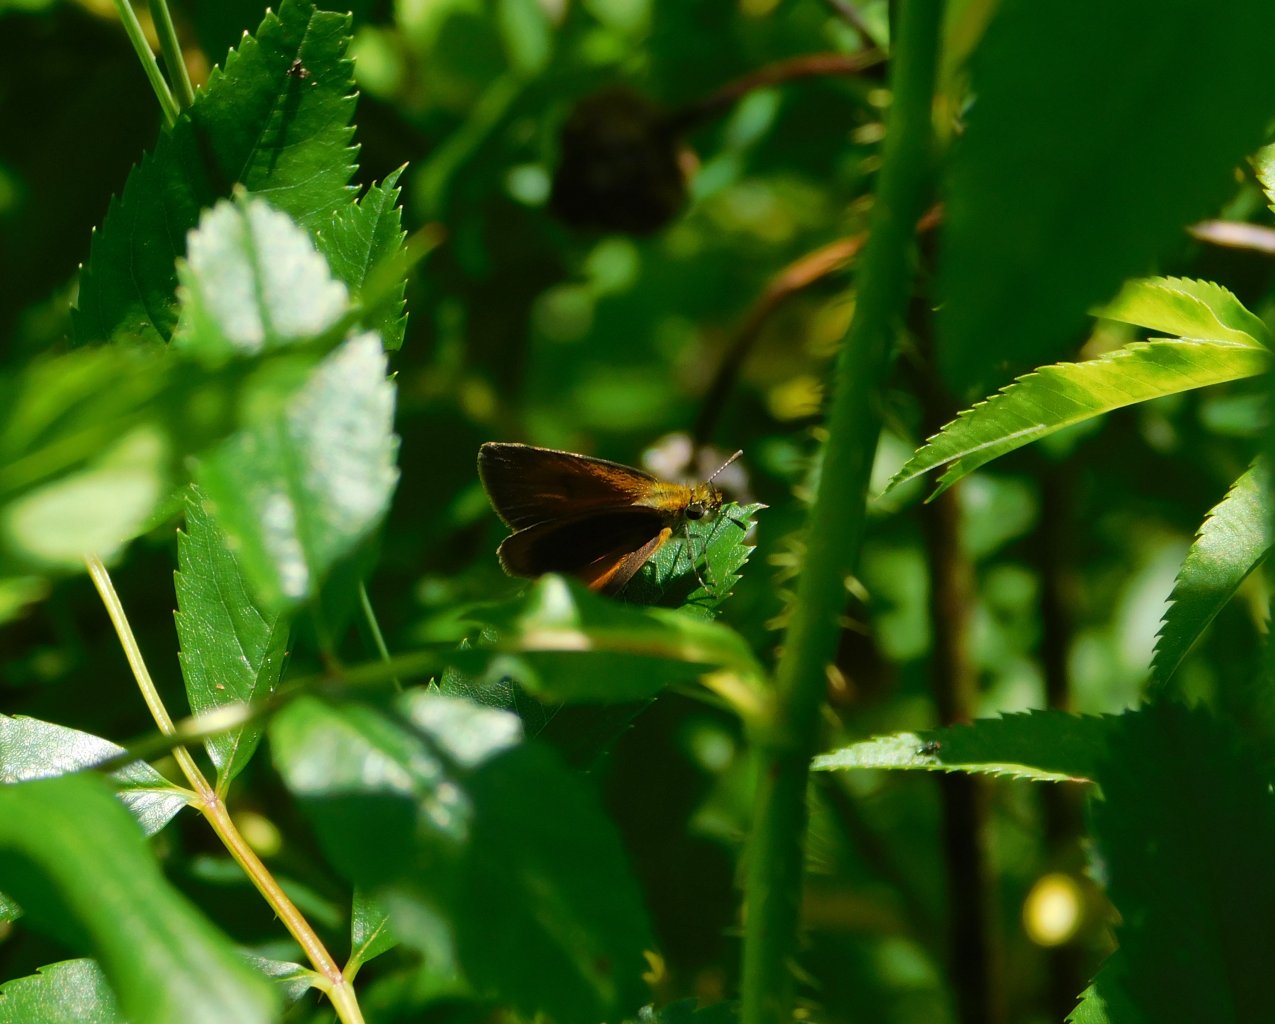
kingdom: Animalia
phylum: Arthropoda
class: Insecta
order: Lepidoptera
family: Hesperiidae
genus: Ancyloxypha
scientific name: Ancyloxypha numitor
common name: Least Skipper
